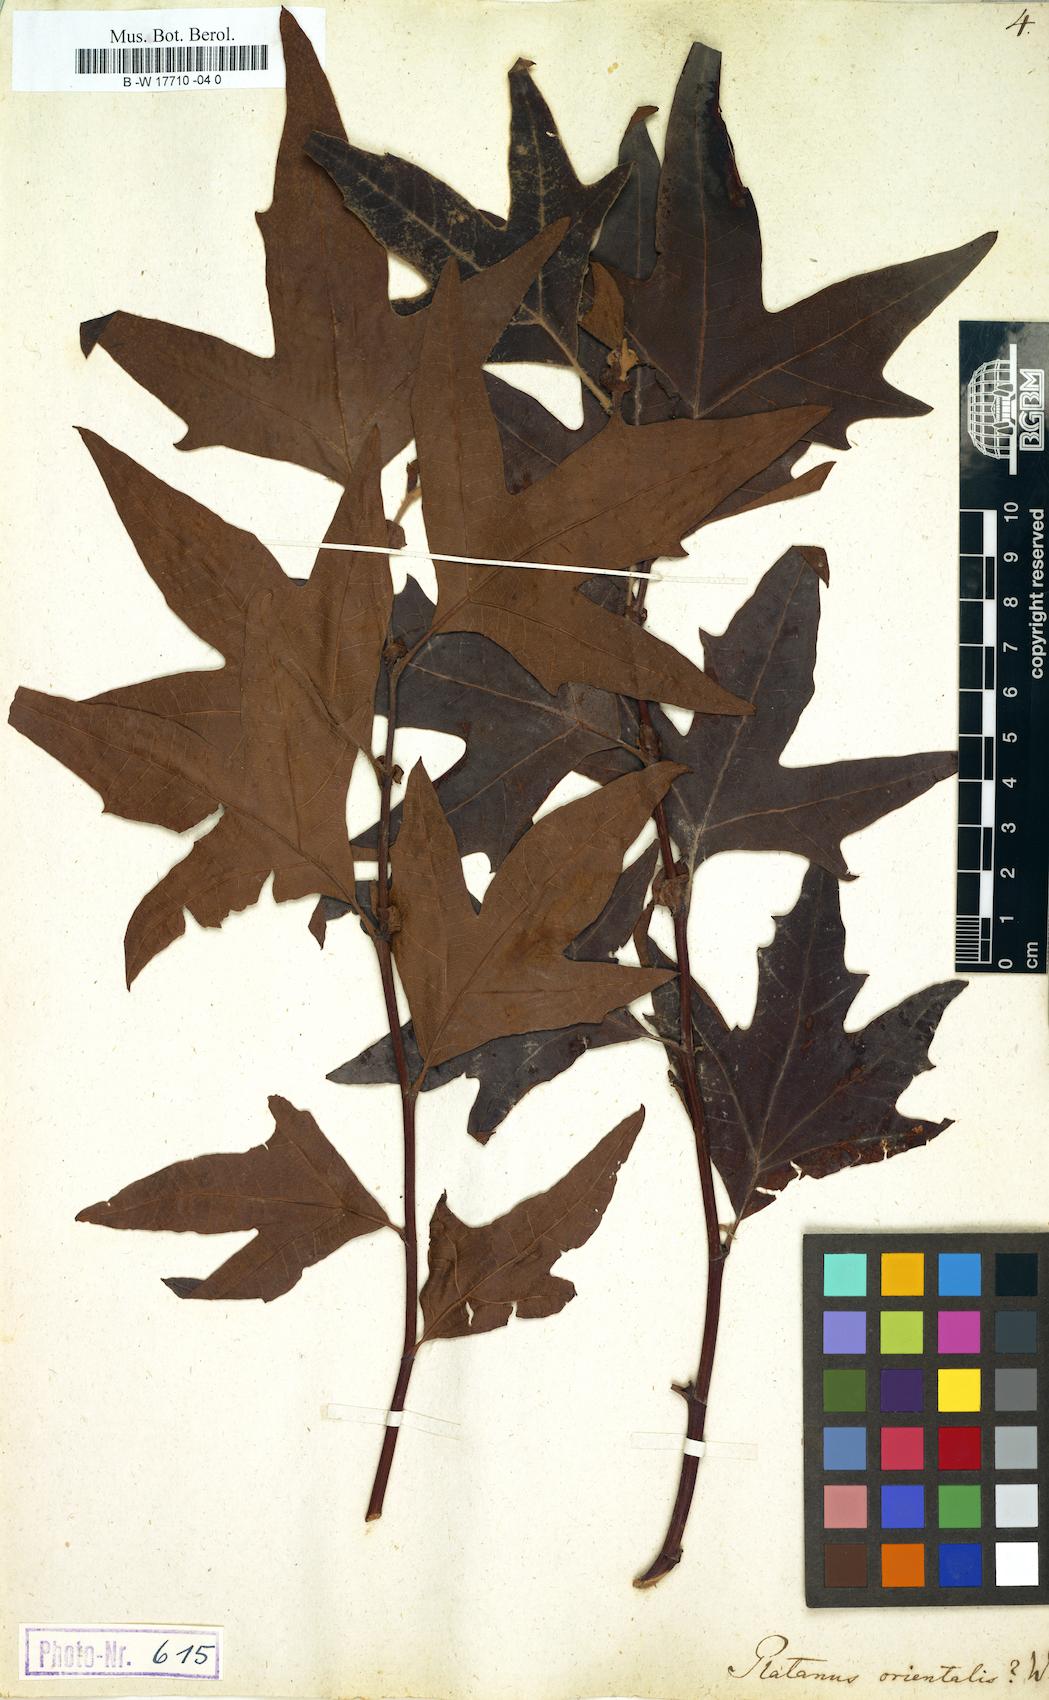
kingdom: Plantae
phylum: Tracheophyta
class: Magnoliopsida
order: Proteales
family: Platanaceae
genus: Platanus
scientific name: Platanus orientalis
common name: Oriental plane
